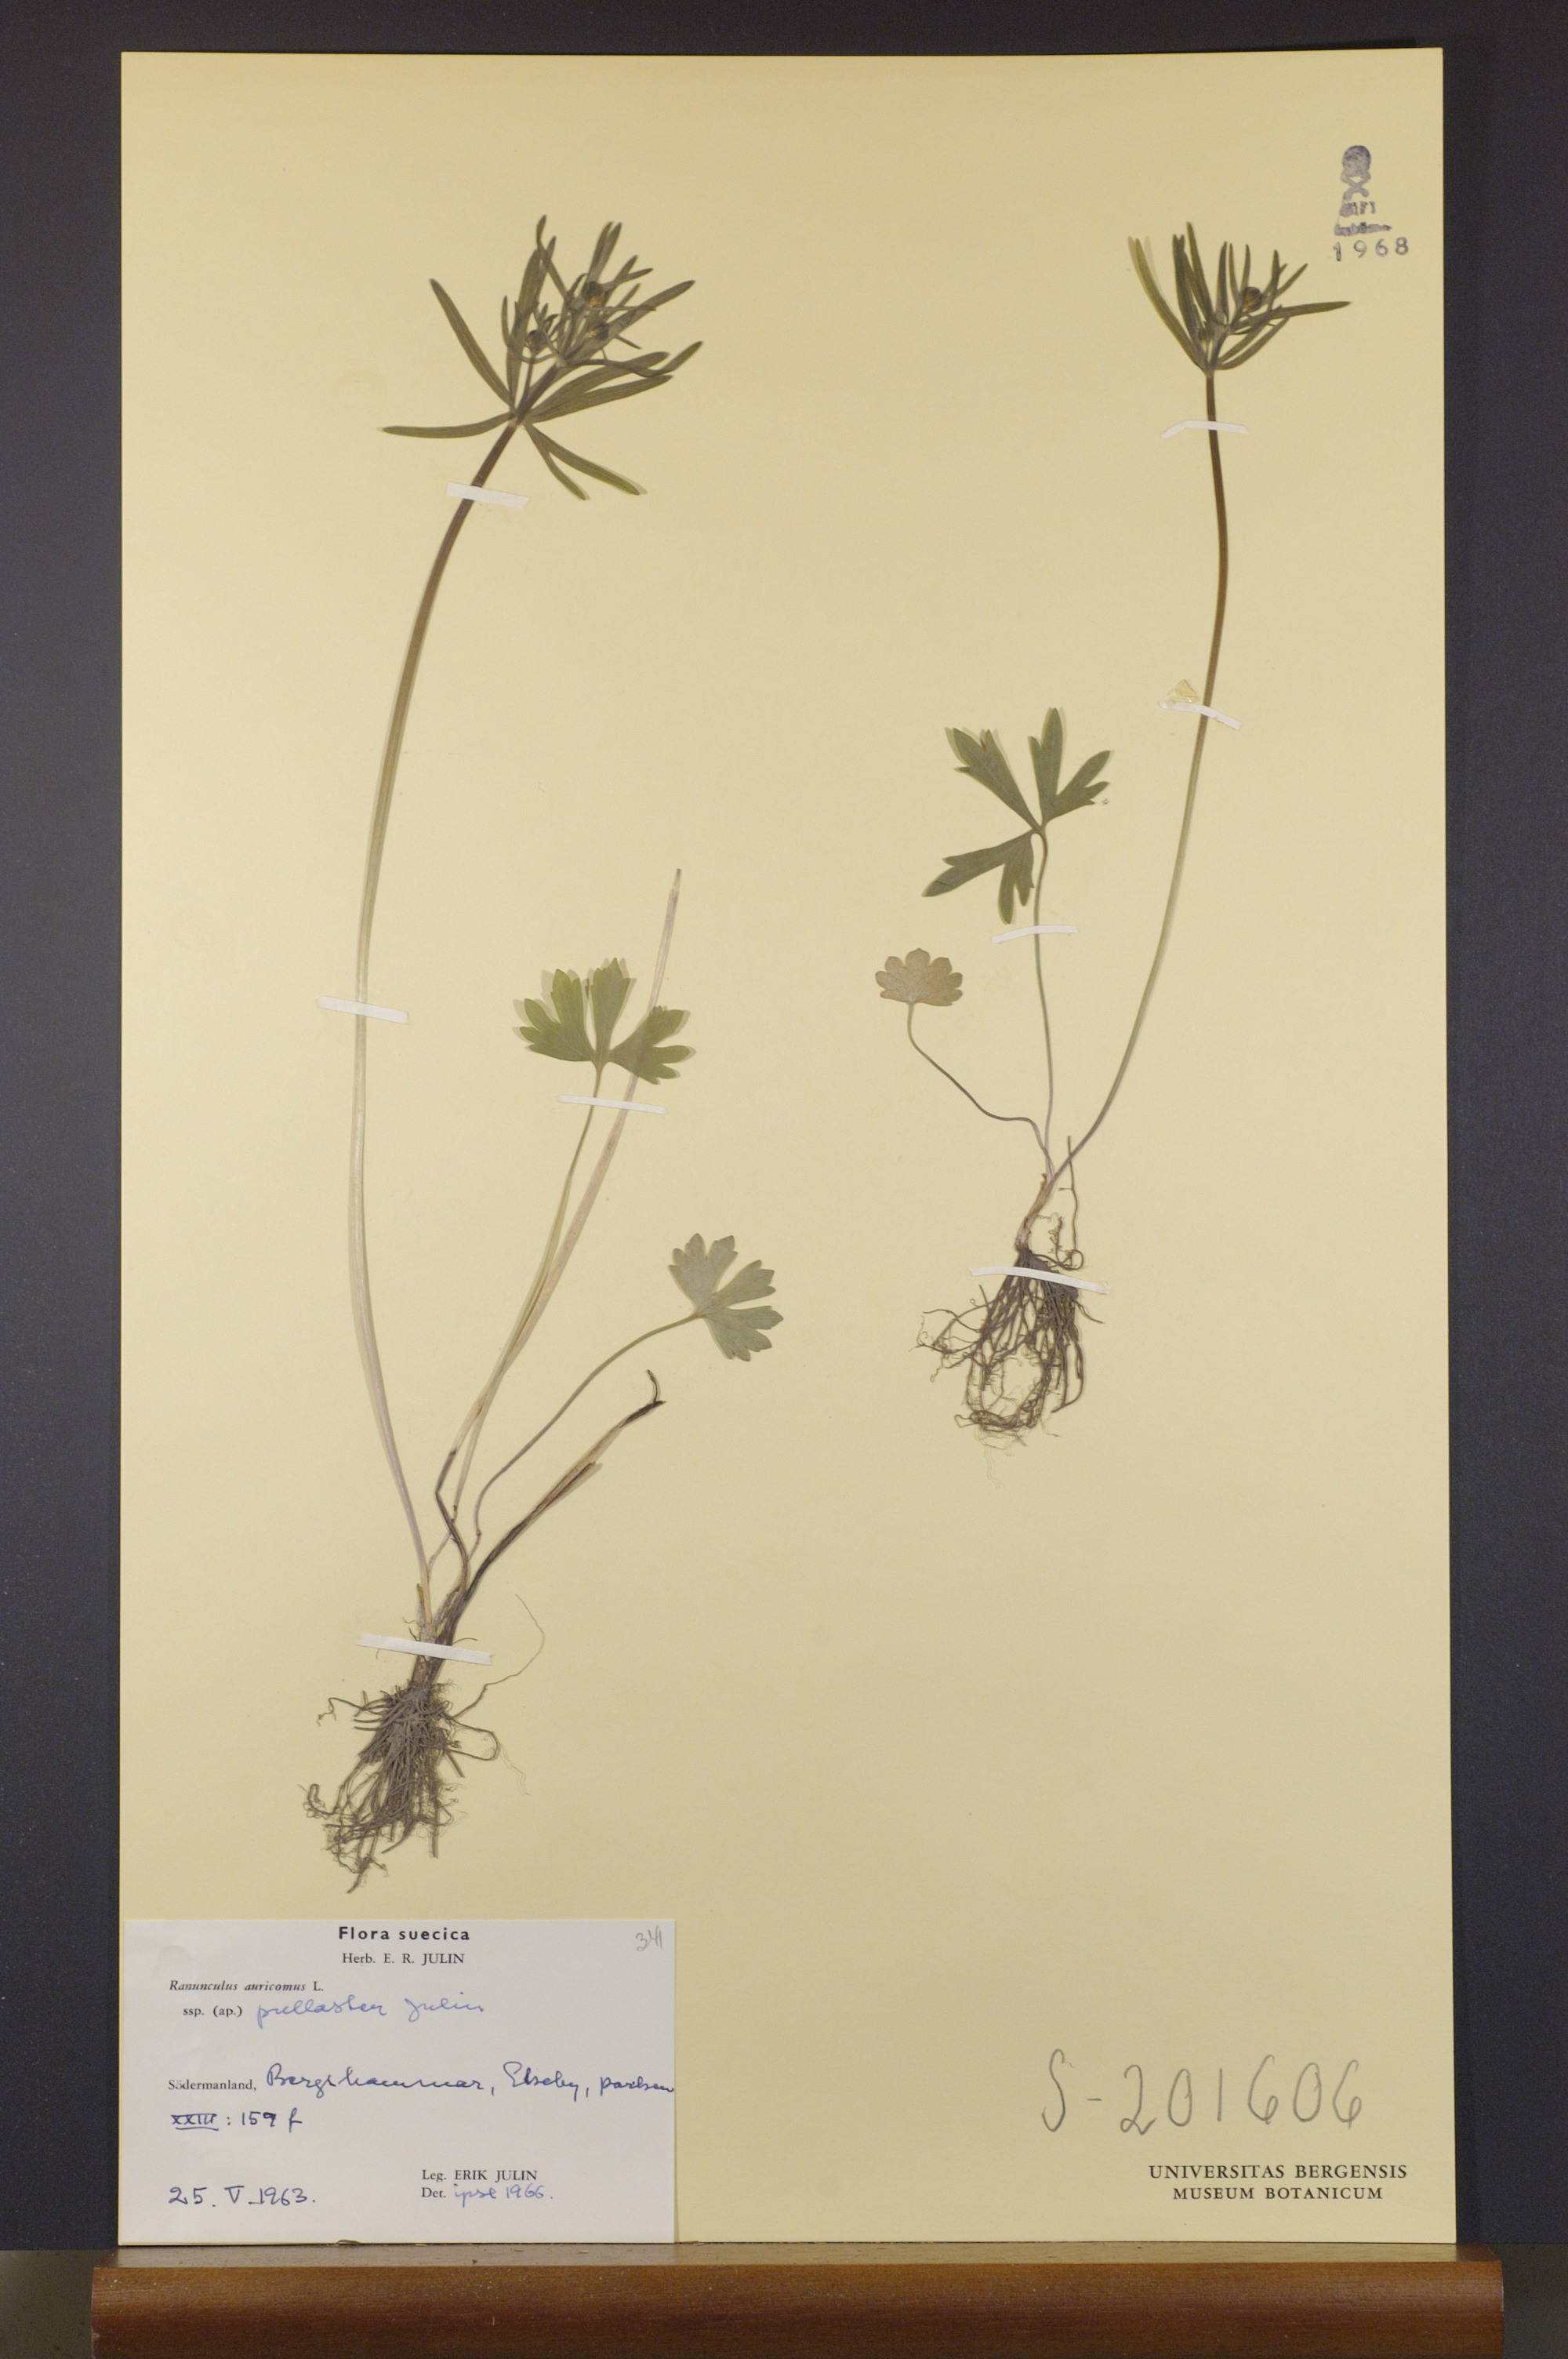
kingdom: Plantae
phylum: Tracheophyta
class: Magnoliopsida
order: Ranunculales
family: Ranunculaceae
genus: Ranunculus
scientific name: Ranunculus pullaster
